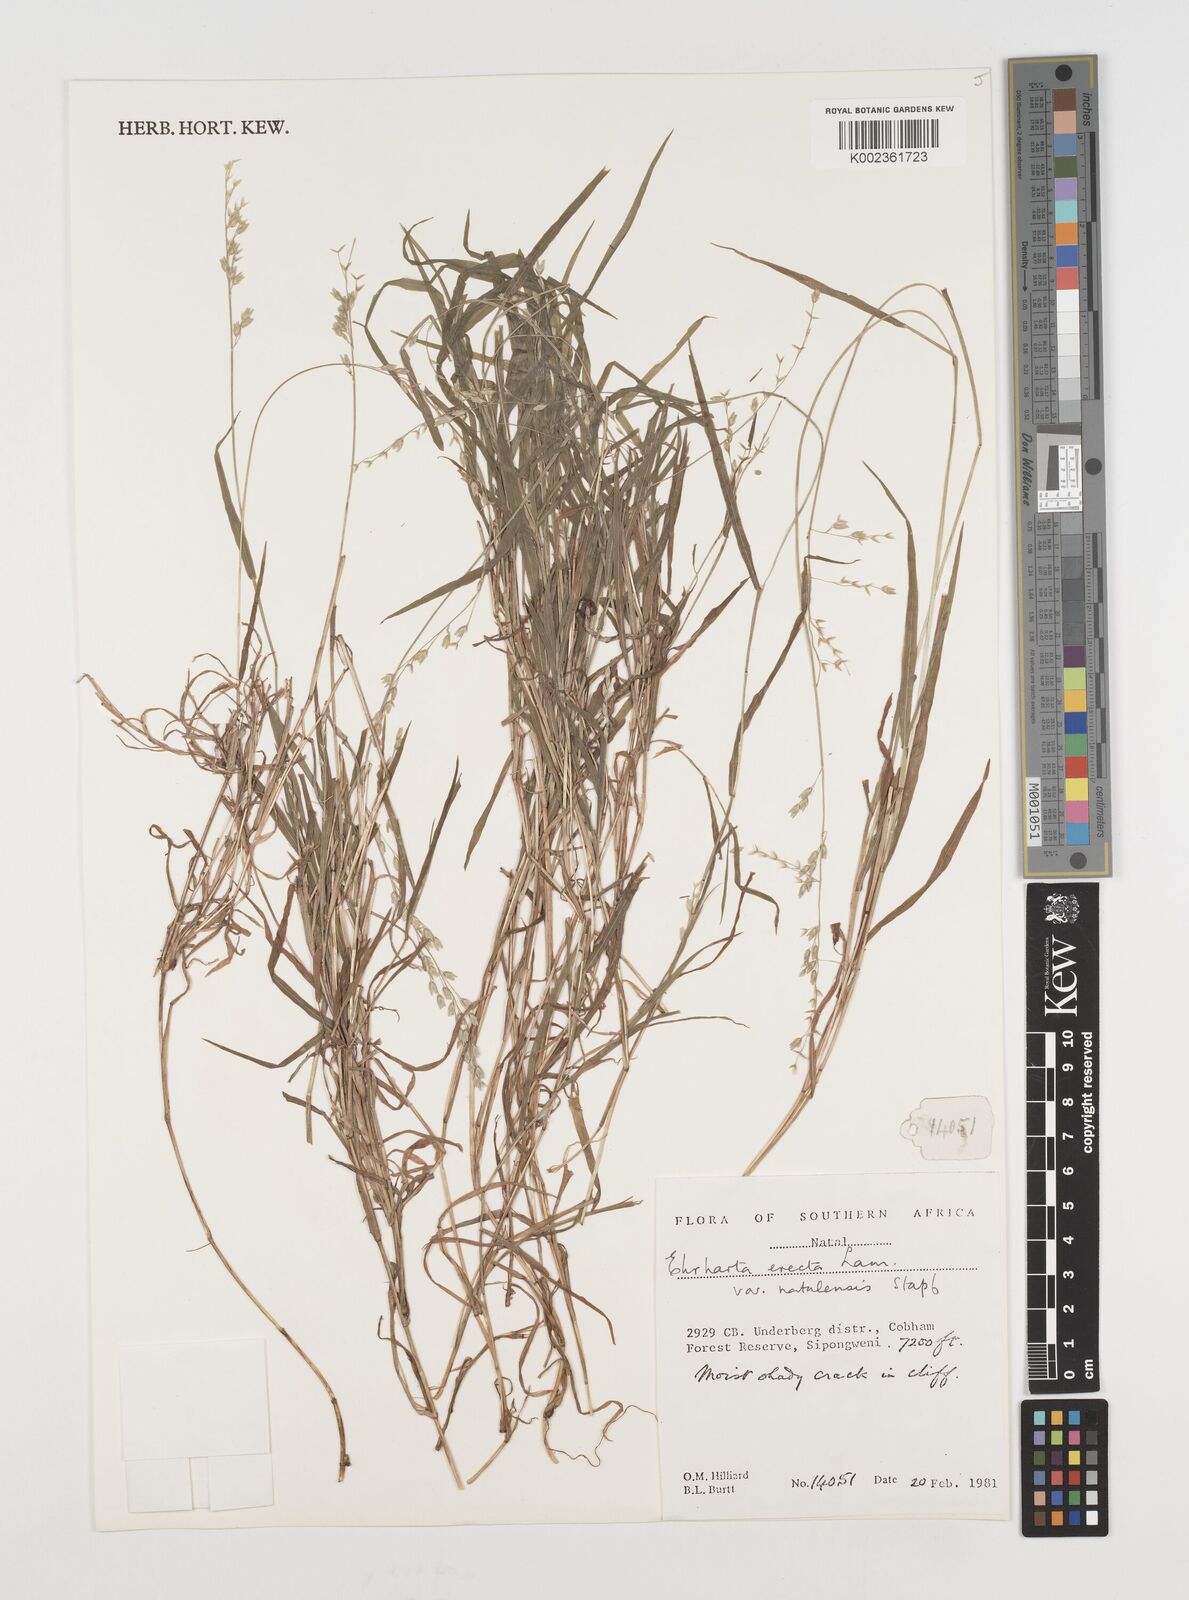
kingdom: Plantae
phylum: Tracheophyta
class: Liliopsida
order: Poales
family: Poaceae
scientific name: Poaceae
